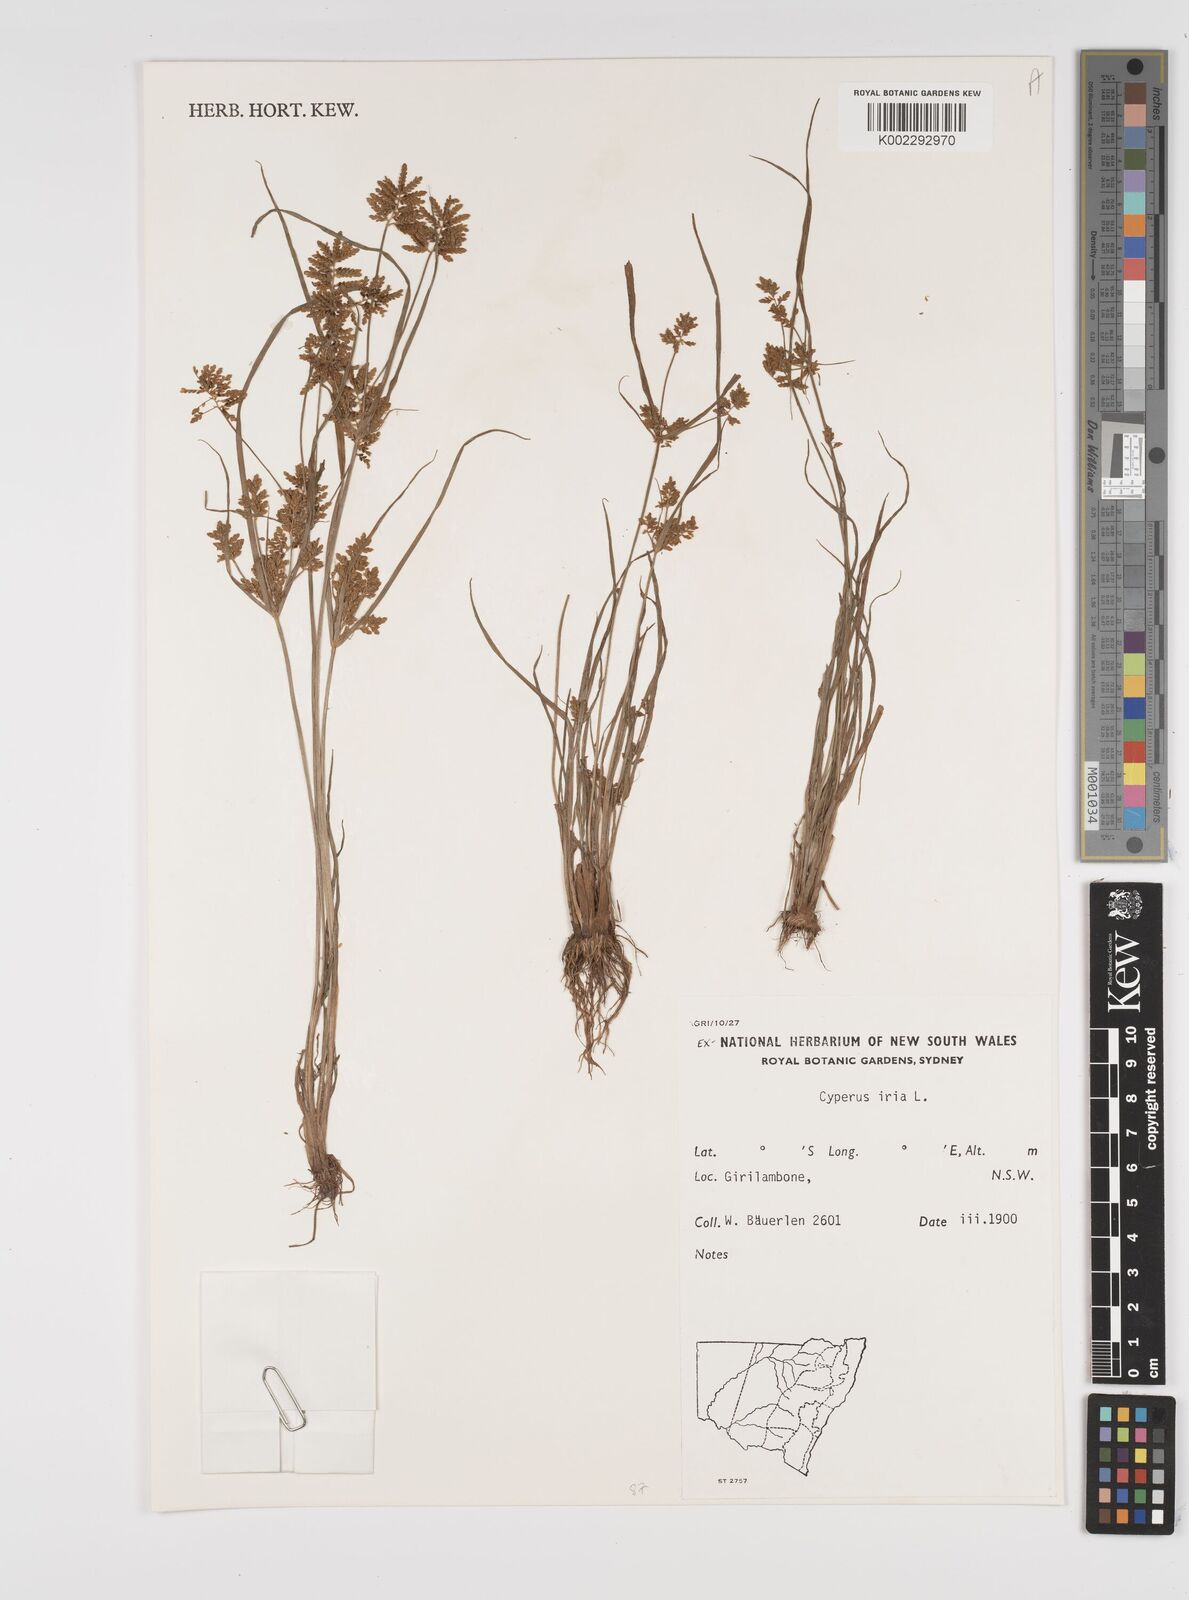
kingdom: Plantae
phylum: Tracheophyta
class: Liliopsida
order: Poales
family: Cyperaceae
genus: Cyperus
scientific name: Cyperus iria
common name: Ricefield flatsedge
